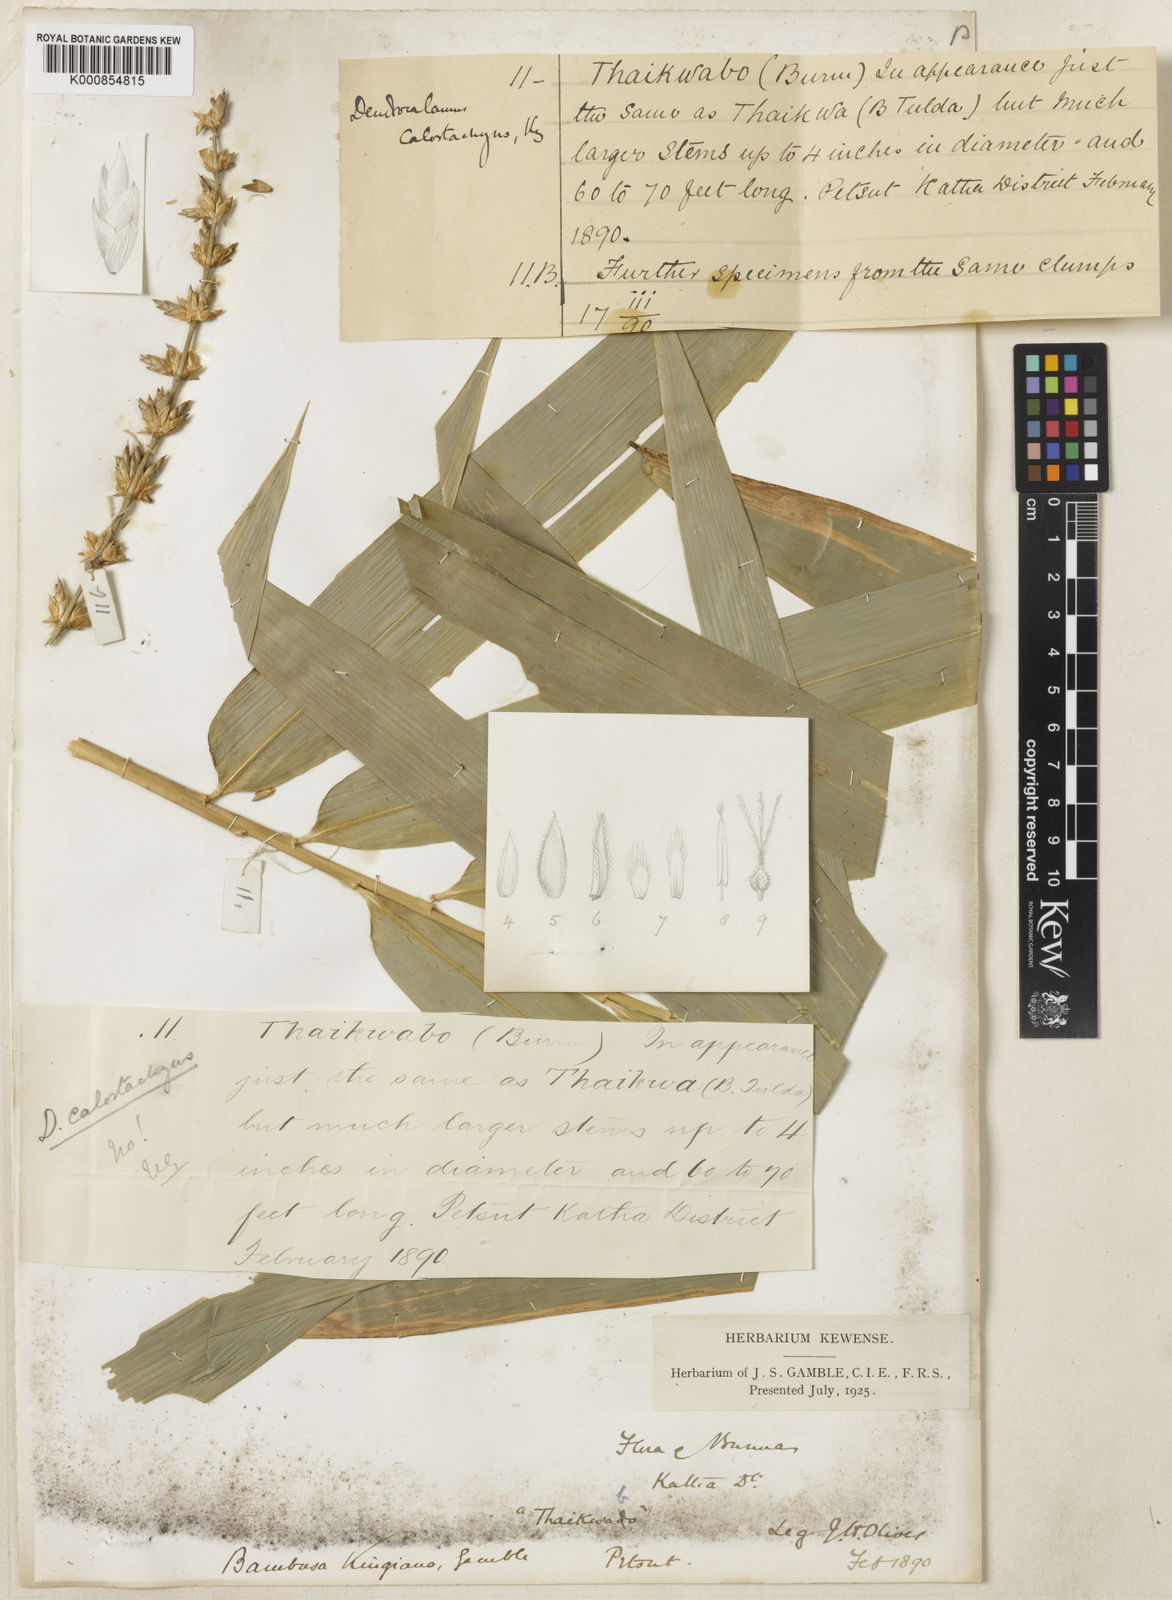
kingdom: Plantae
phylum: Tracheophyta
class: Liliopsida
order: Poales
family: Poaceae
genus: Bambusa
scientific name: Bambusa kingiana
